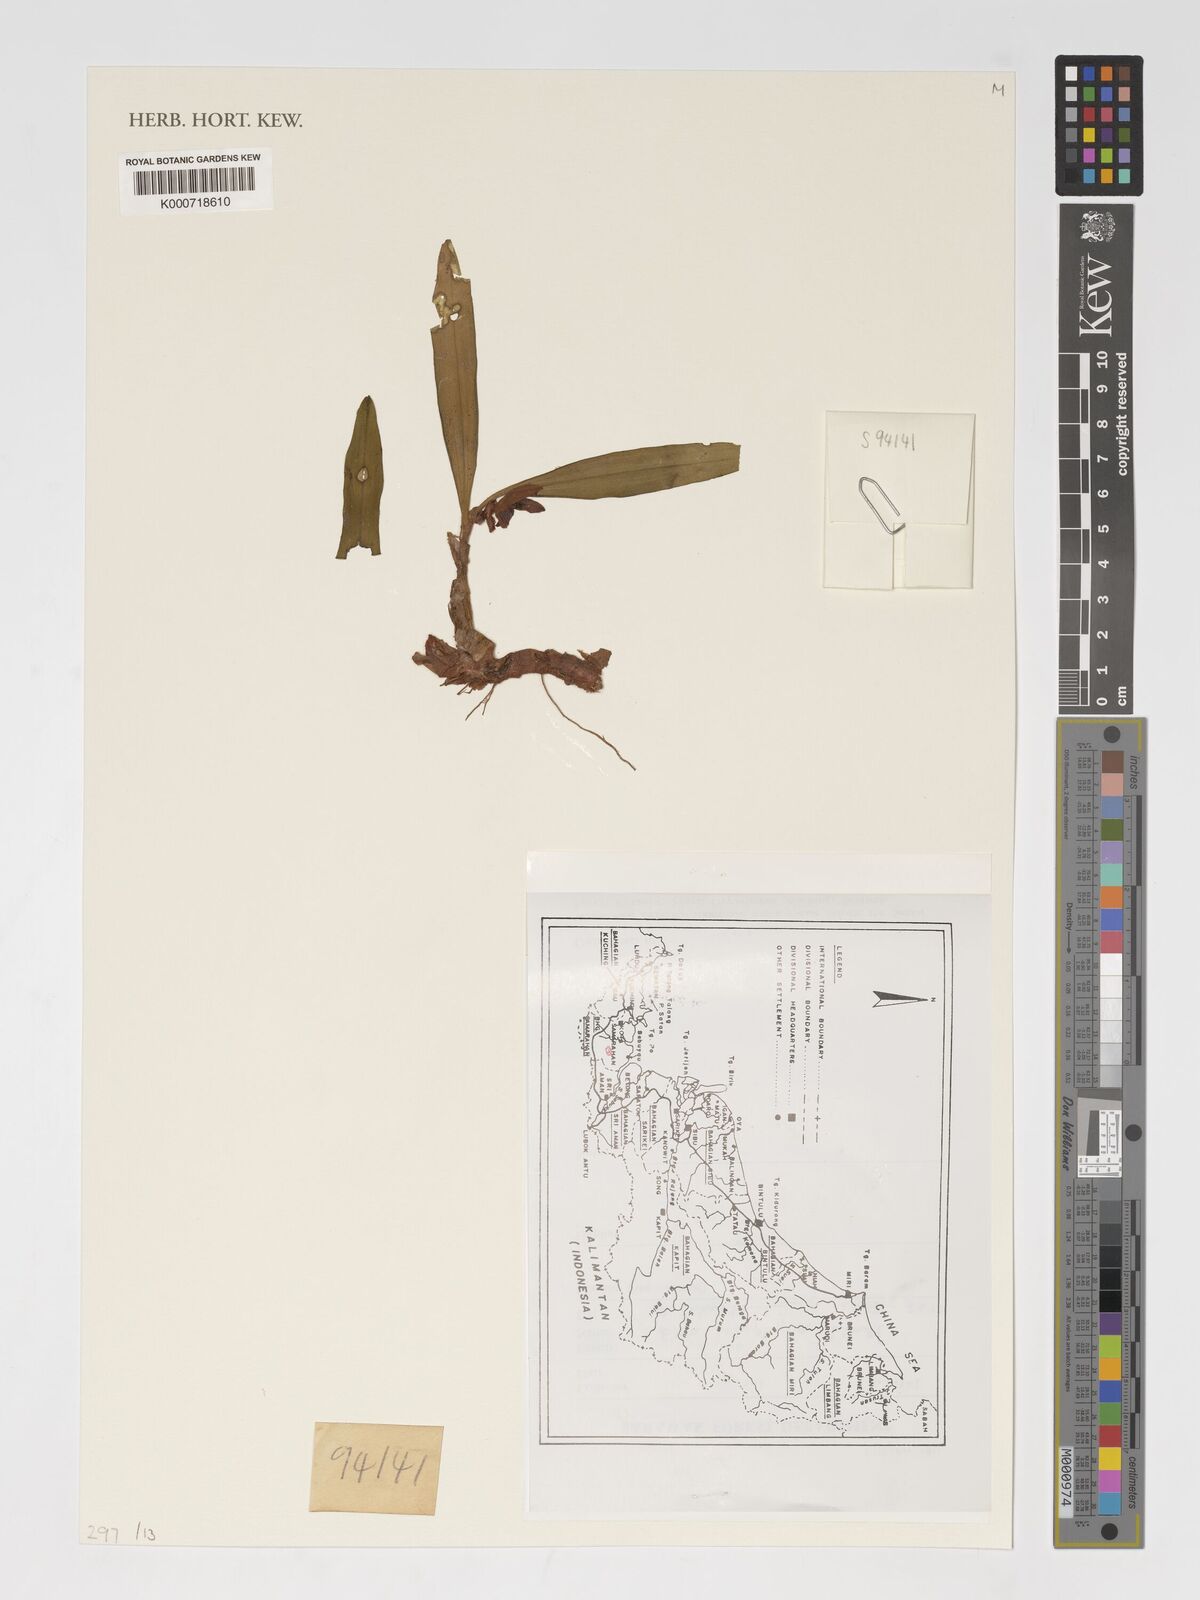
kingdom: Plantae
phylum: Tracheophyta
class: Liliopsida
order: Asparagales
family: Orchidaceae
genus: Strongyleria
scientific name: Strongyleria leiophylla
